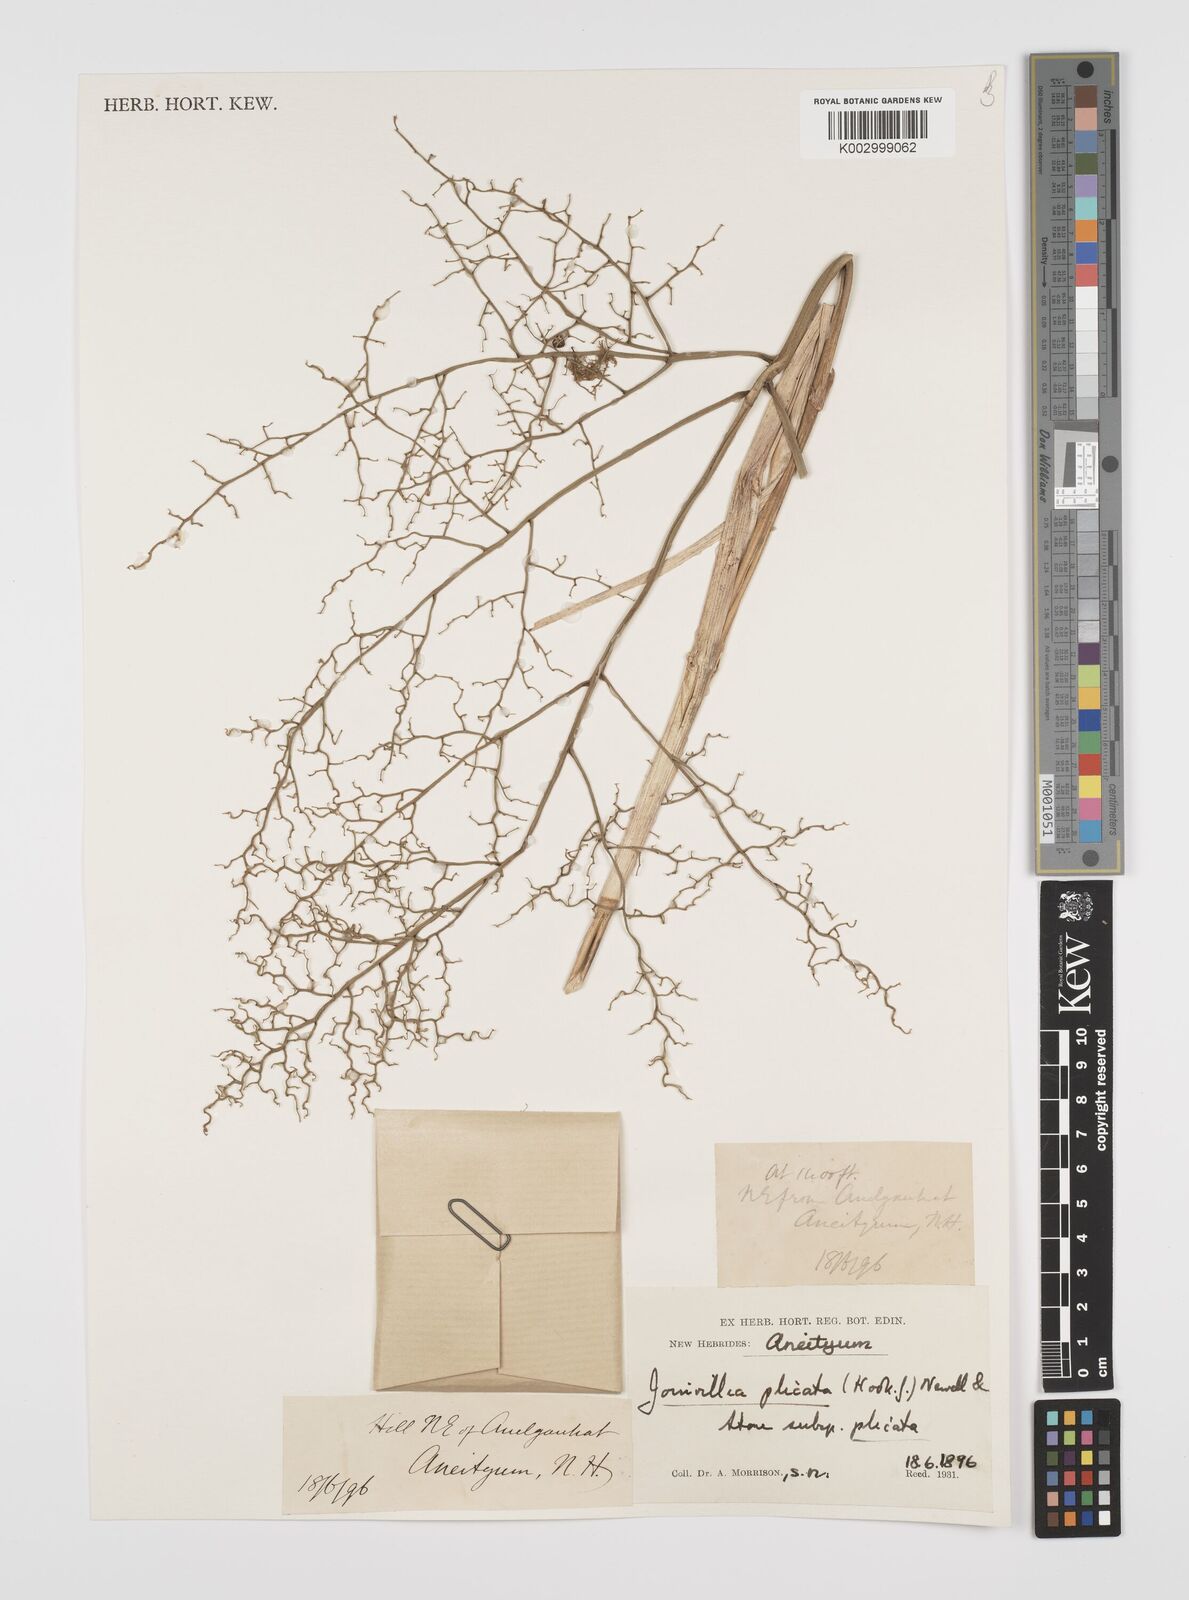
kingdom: Plantae
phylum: Tracheophyta
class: Liliopsida
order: Poales
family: Joinvilleaceae
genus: Joinvillea
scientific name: Joinvillea plicata
